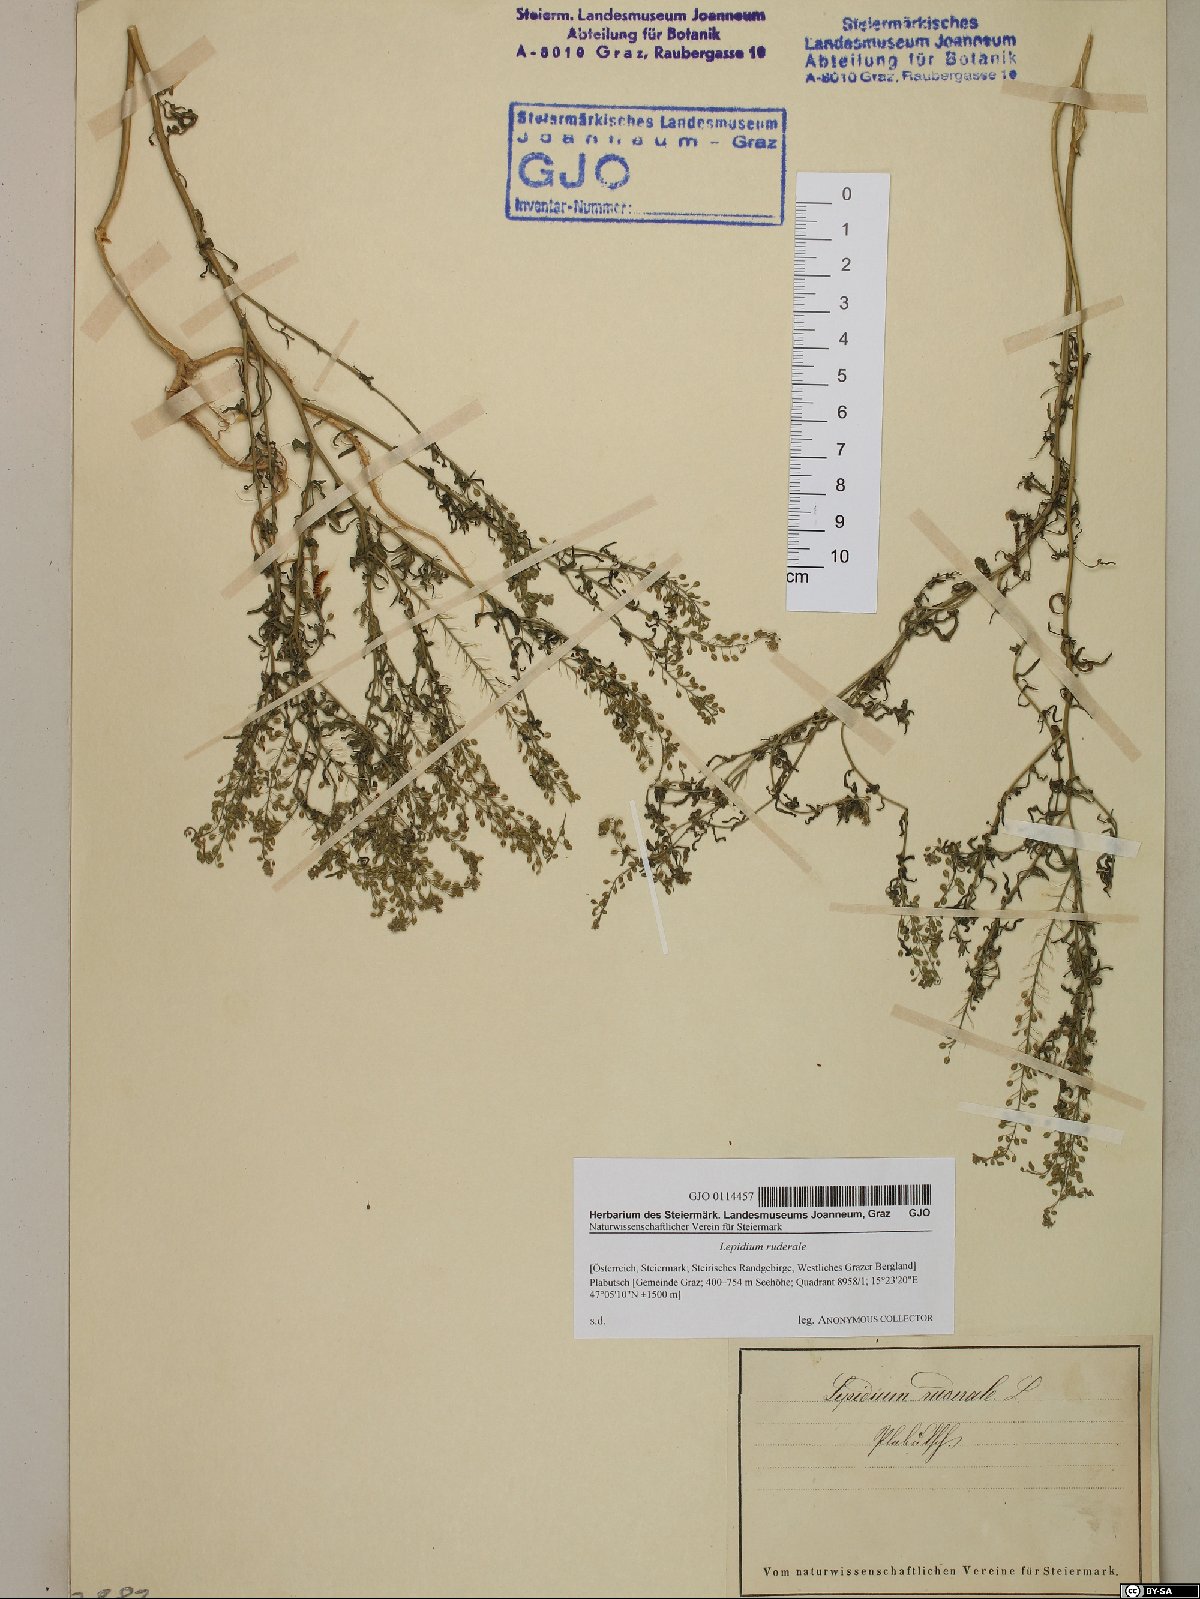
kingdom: Plantae
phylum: Tracheophyta
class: Magnoliopsida
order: Brassicales
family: Brassicaceae
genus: Lepidium
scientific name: Lepidium ruderale
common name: Narrow-leaved pepperwort
